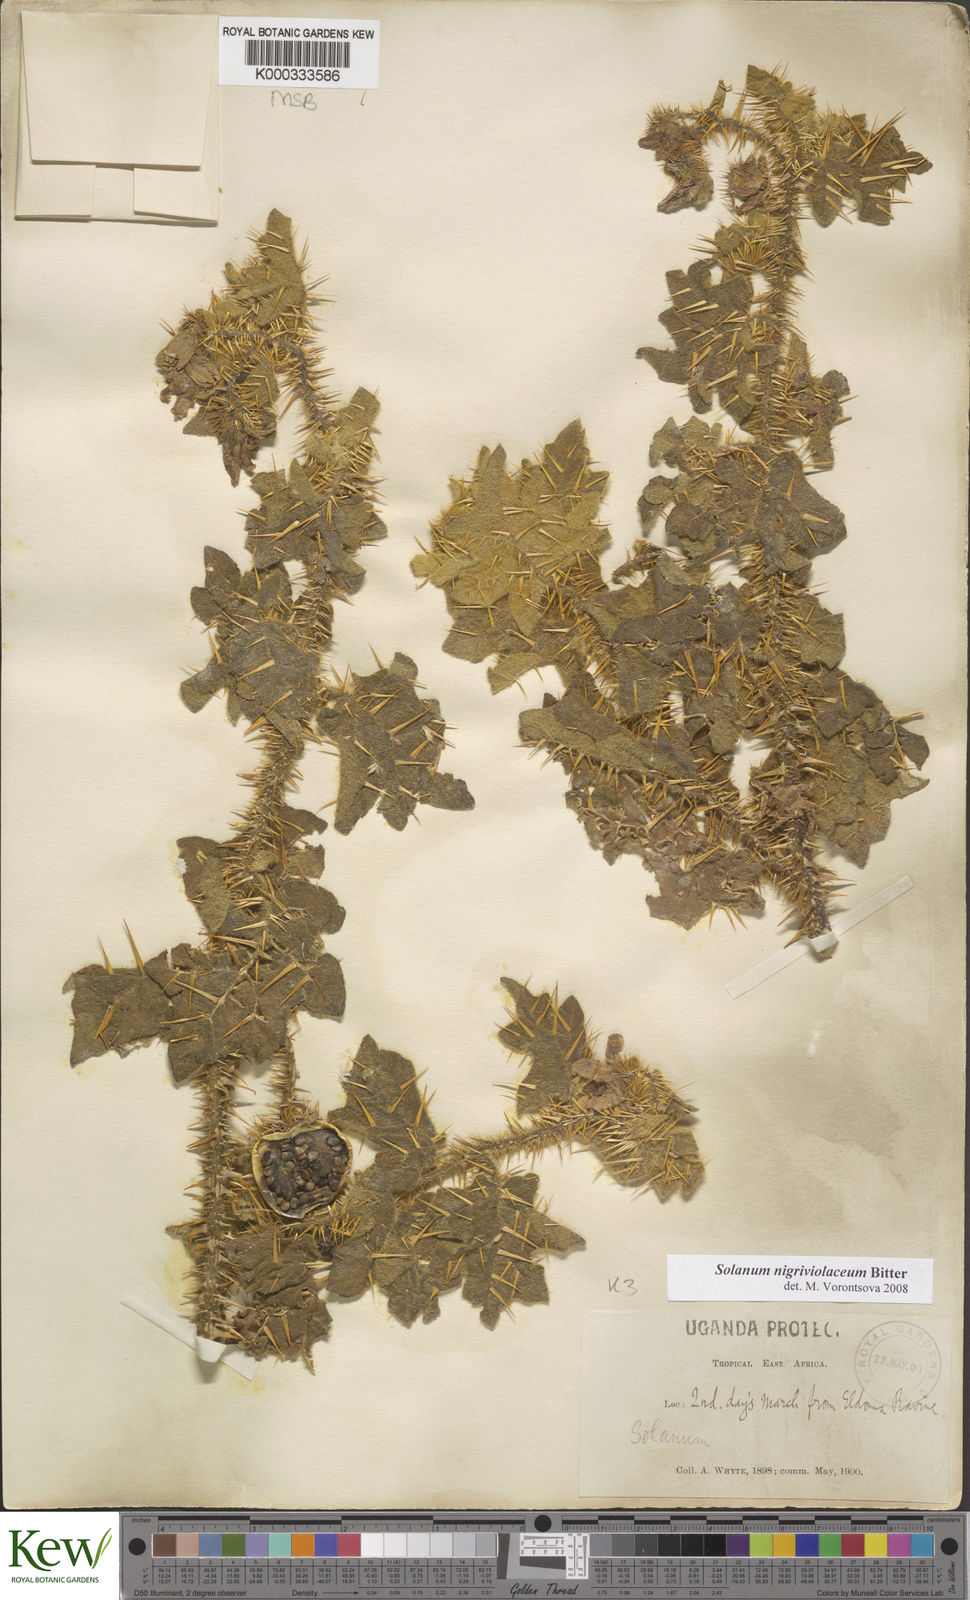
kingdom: Plantae
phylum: Tracheophyta
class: Magnoliopsida
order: Solanales
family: Solanaceae
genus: Solanum
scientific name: Solanum nigriviolaceum
